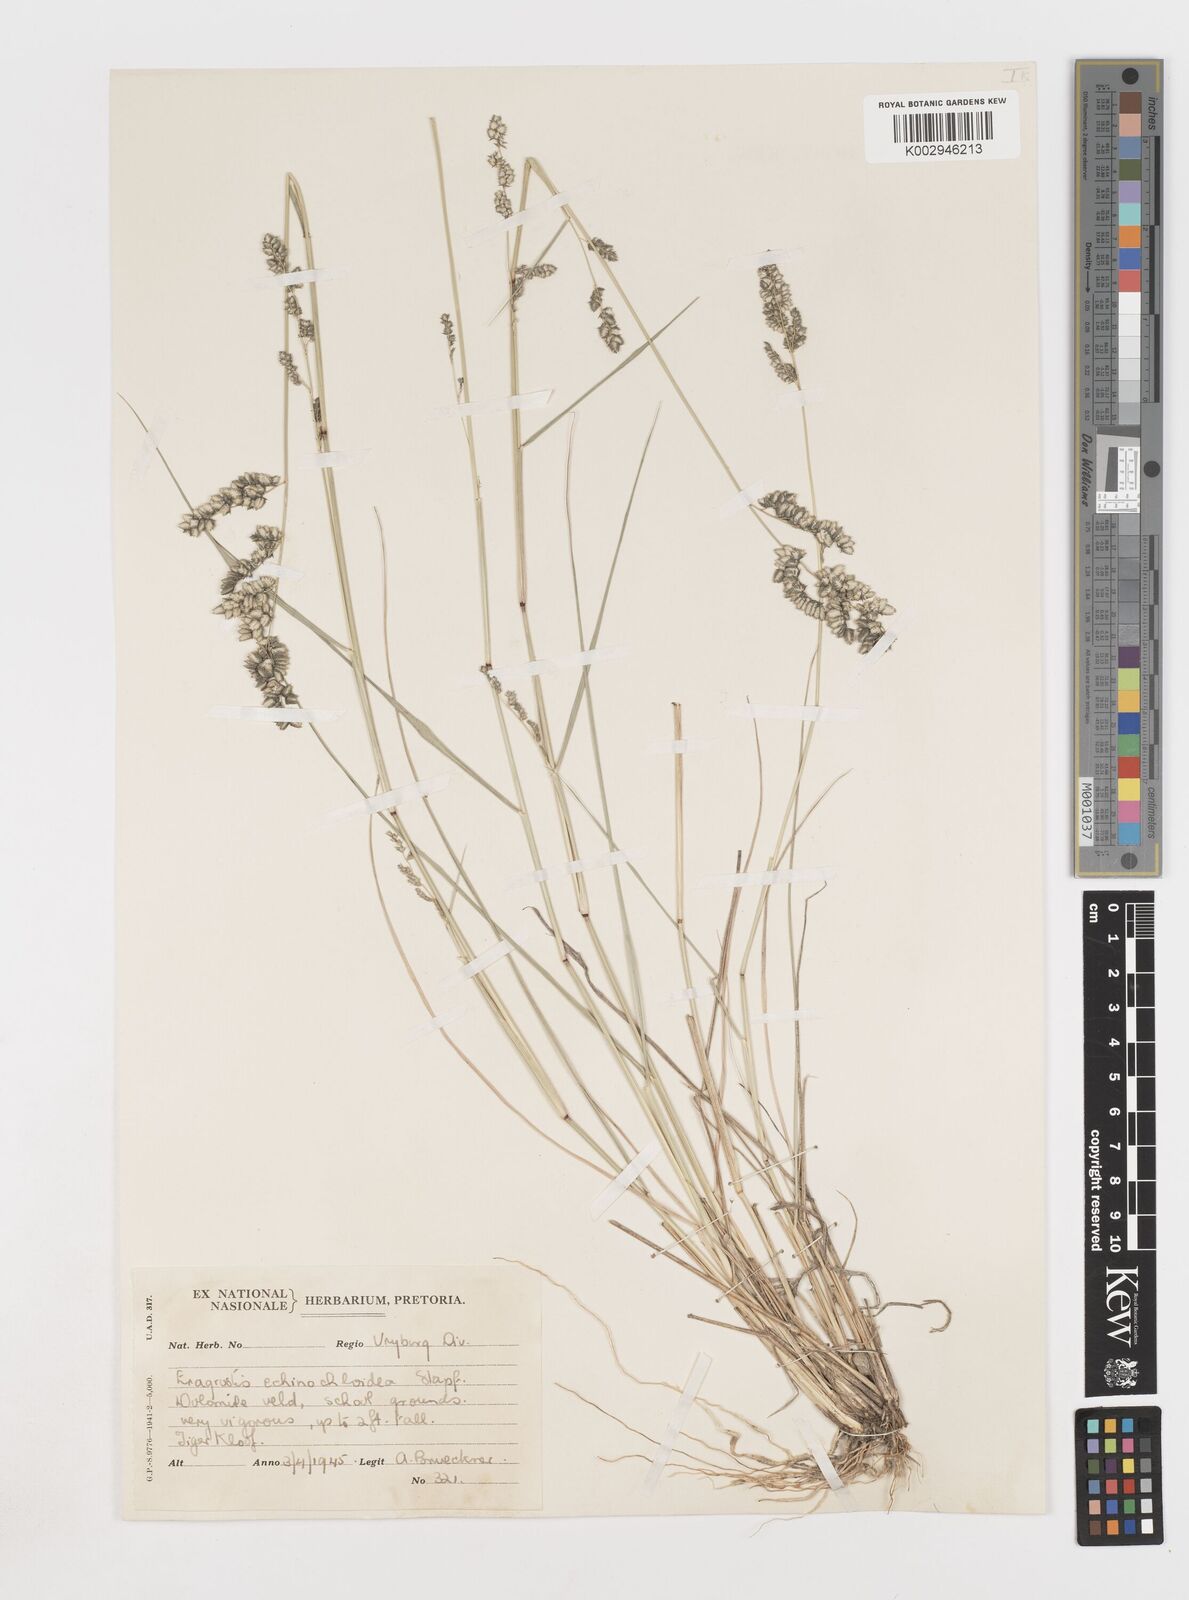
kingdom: Plantae
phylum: Tracheophyta
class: Liliopsida
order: Poales
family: Poaceae
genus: Eragrostis
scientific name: Eragrostis echinochloidea
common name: African lovegrass
